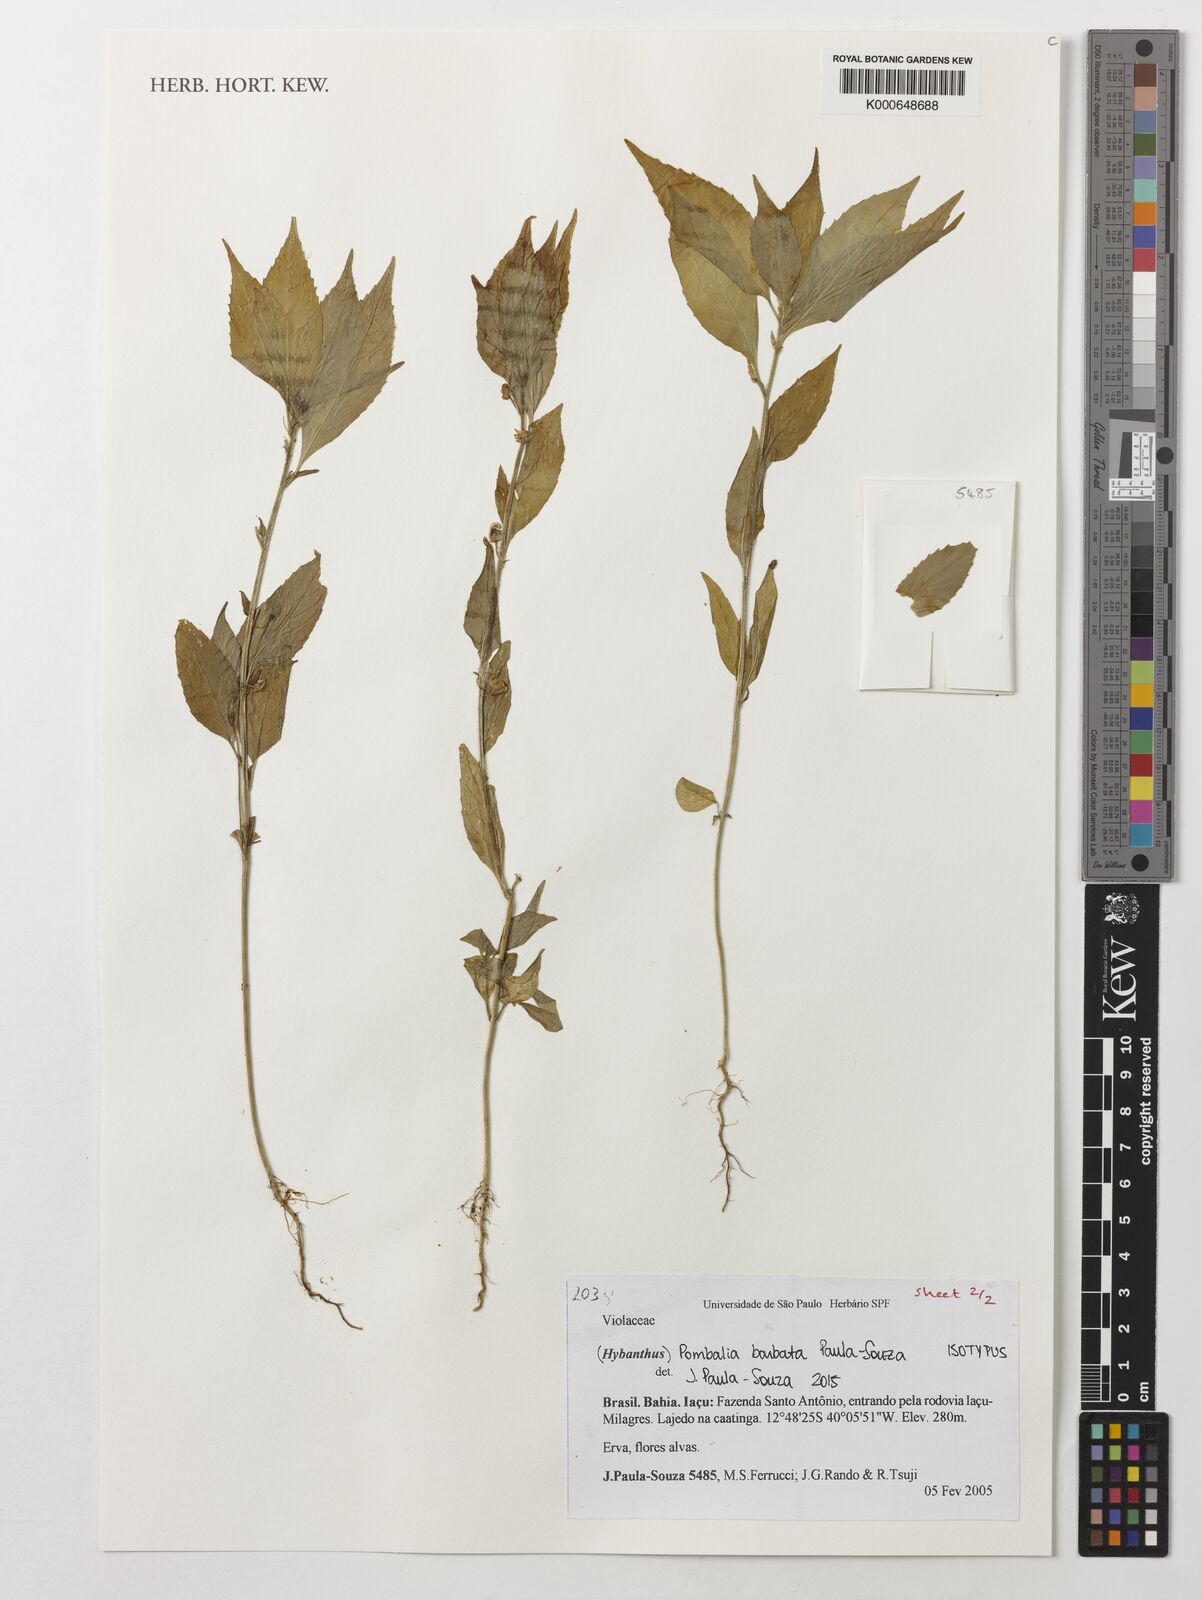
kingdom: Plantae
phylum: Tracheophyta
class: Magnoliopsida
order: Malpighiales
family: Violaceae
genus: Pombalia
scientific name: Pombalia barbata
